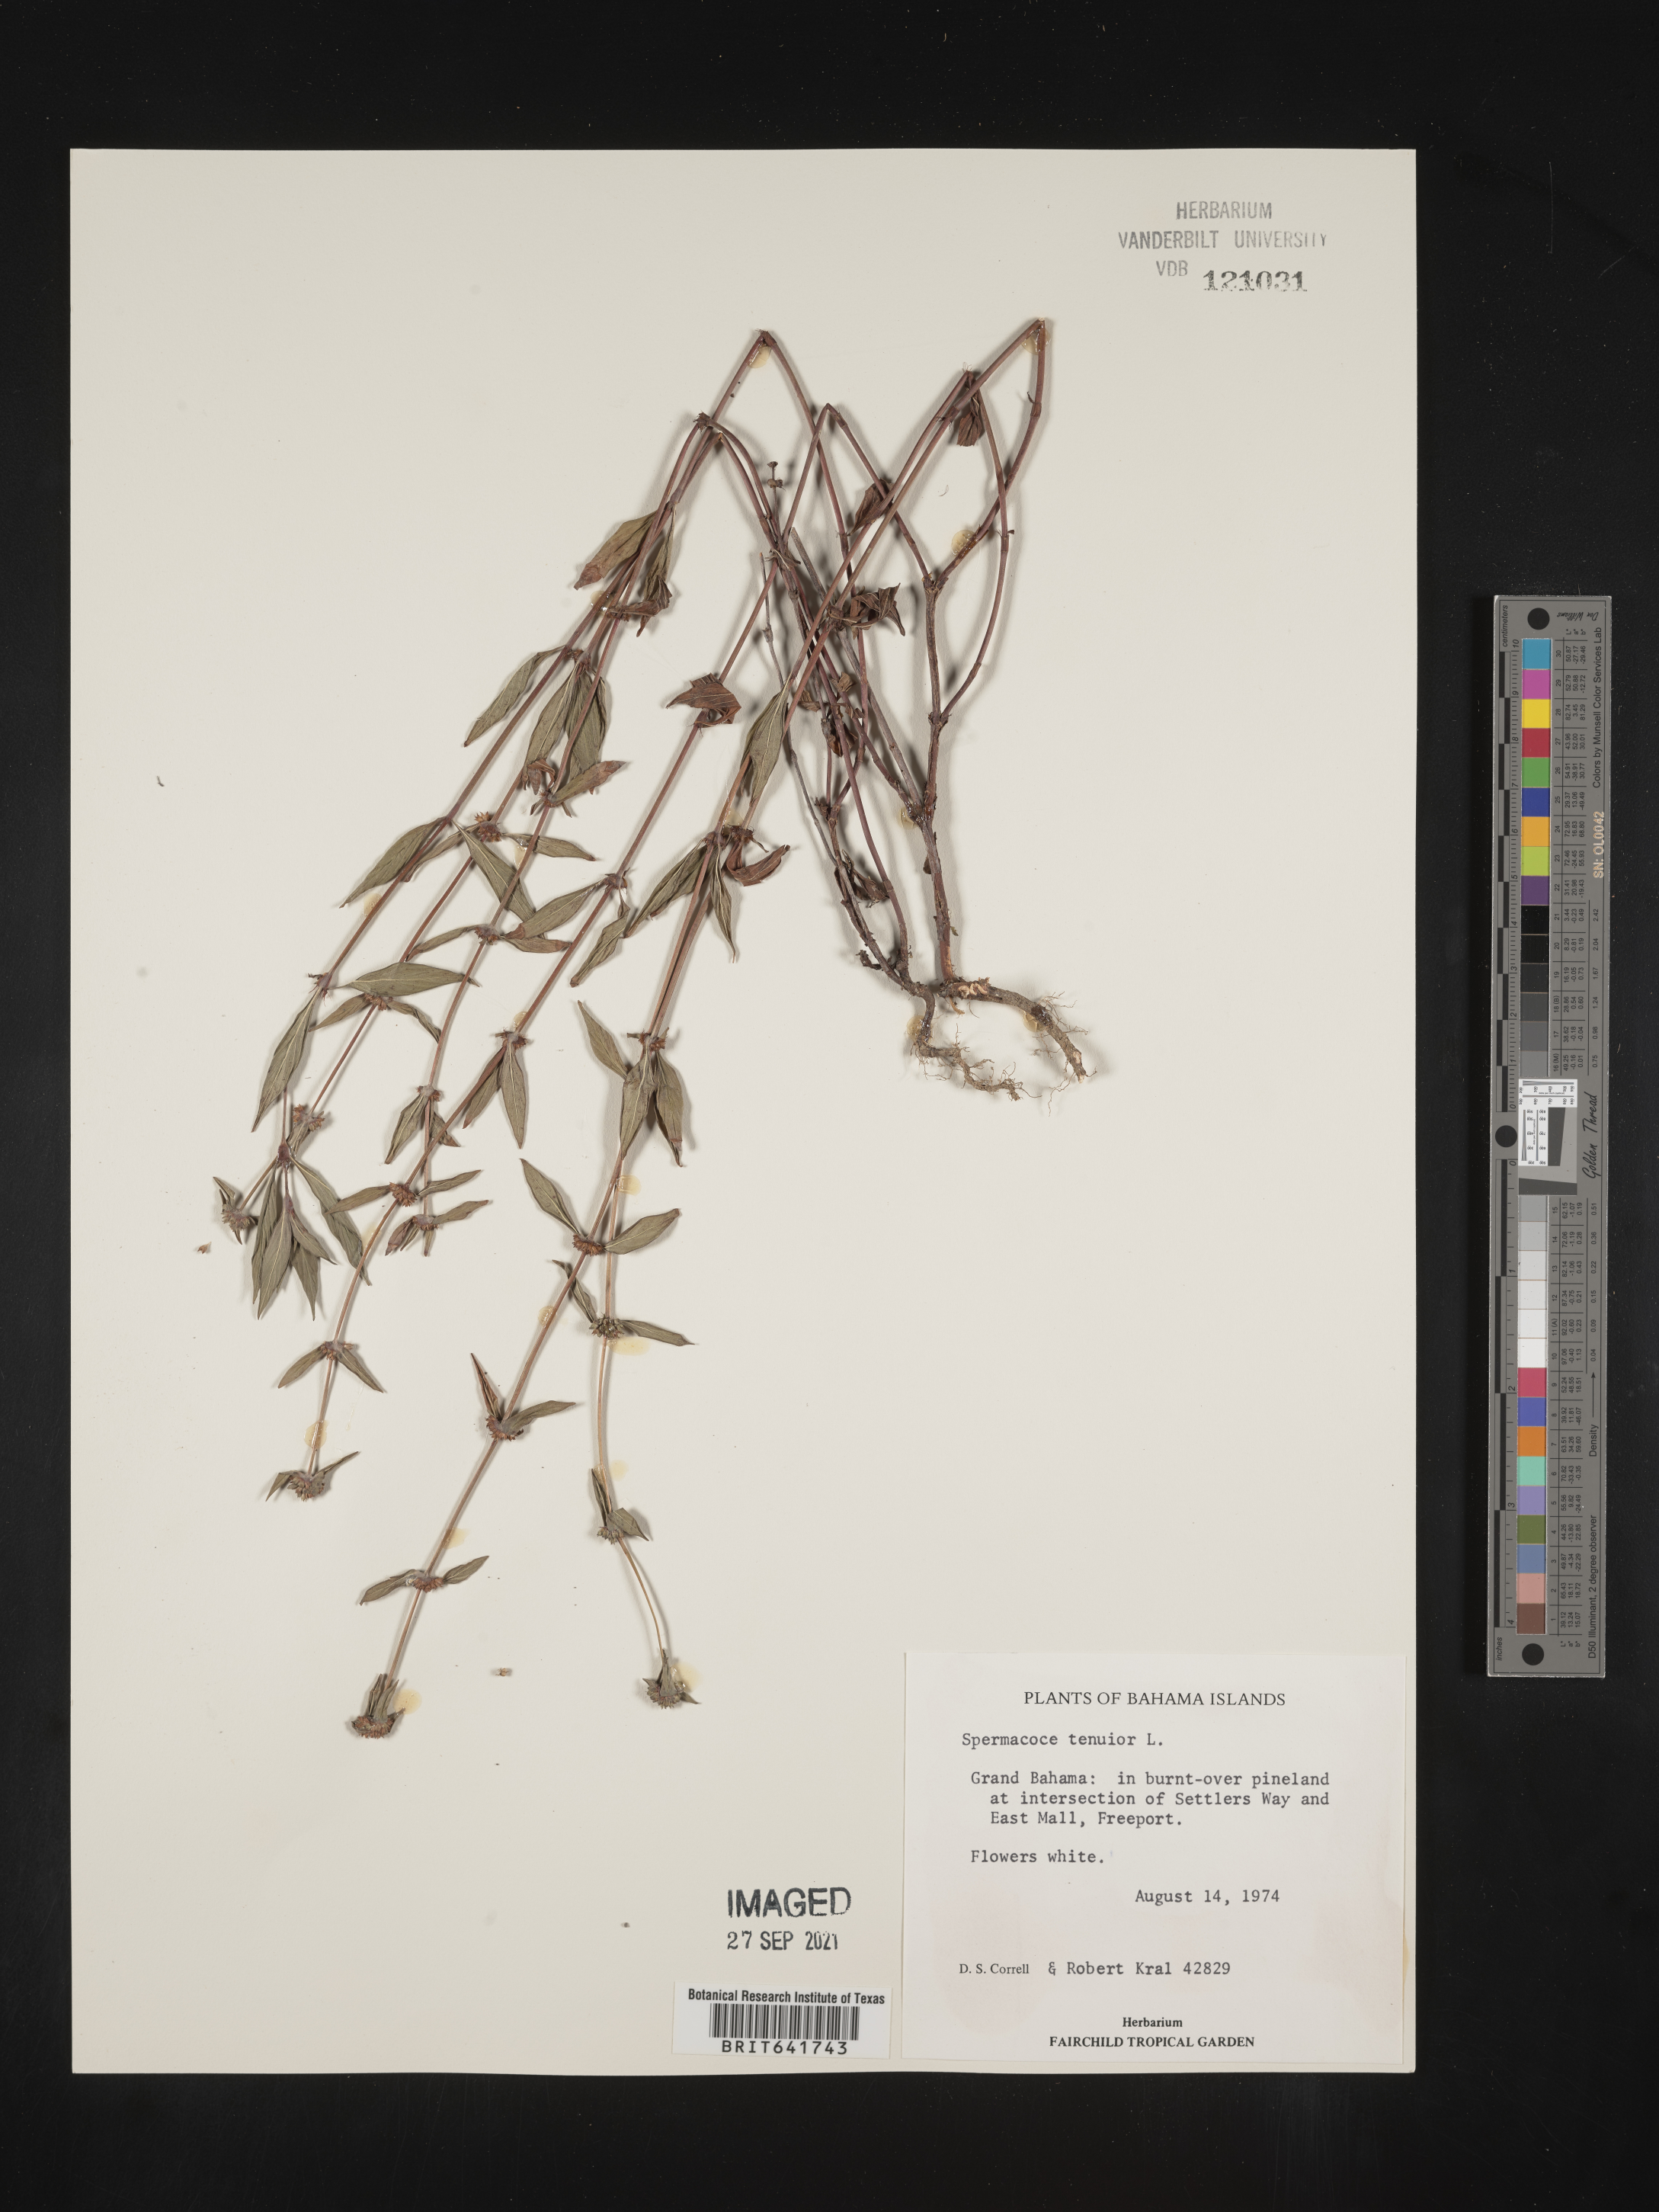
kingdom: Plantae
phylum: Tracheophyta
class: Magnoliopsida
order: Gentianales
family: Rubiaceae
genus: Spermacoce
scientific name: Spermacoce
